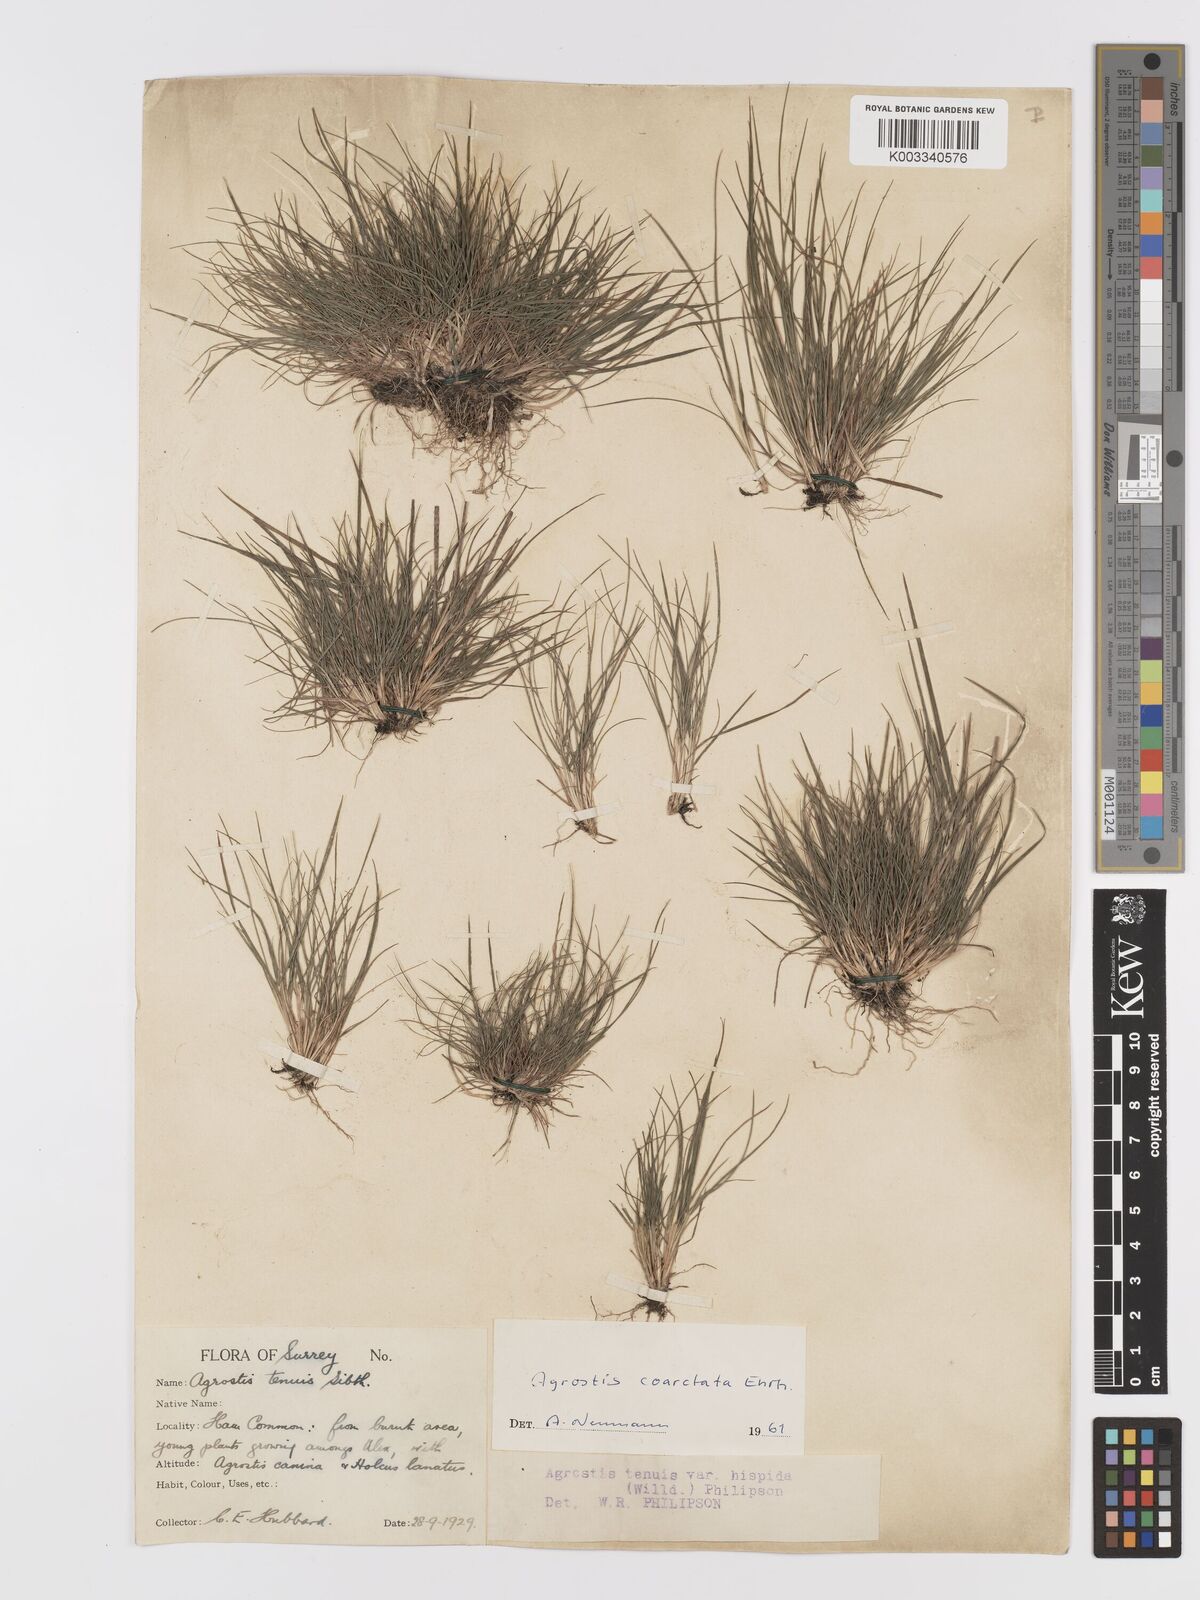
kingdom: Plantae
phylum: Tracheophyta
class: Liliopsida
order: Poales
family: Poaceae
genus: Agrostis
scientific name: Agrostis capillaris
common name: Colonial bentgrass
